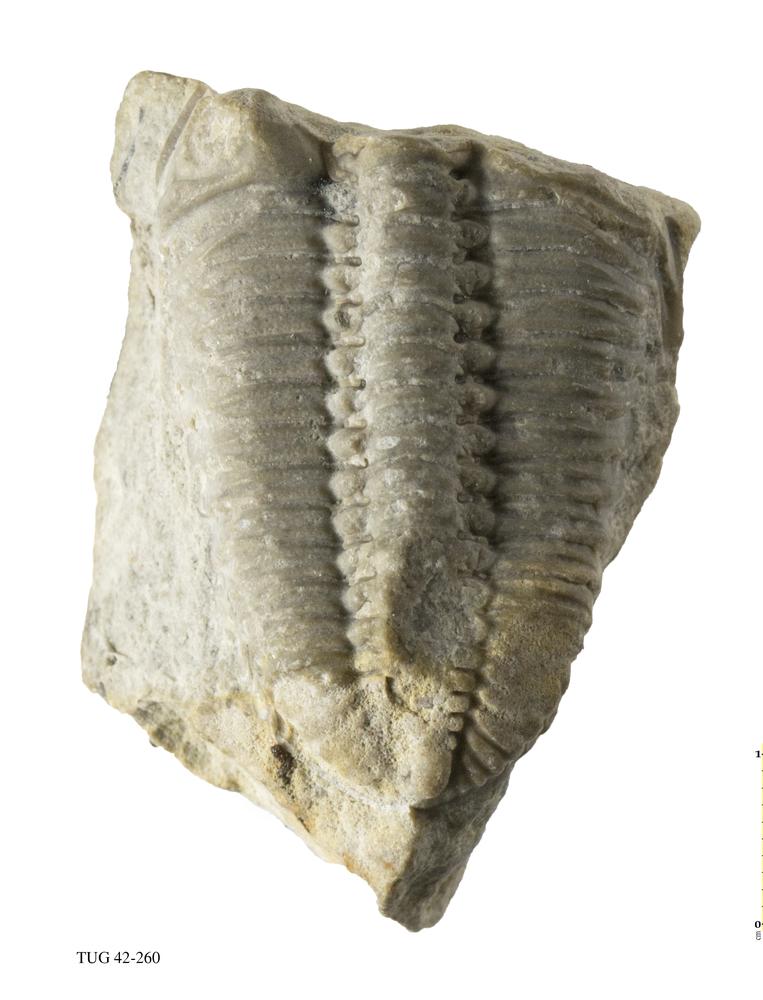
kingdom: Animalia
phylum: Arthropoda
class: Trilobita
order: Phacopida
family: Phacopidae
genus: Phacops
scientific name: Phacops
